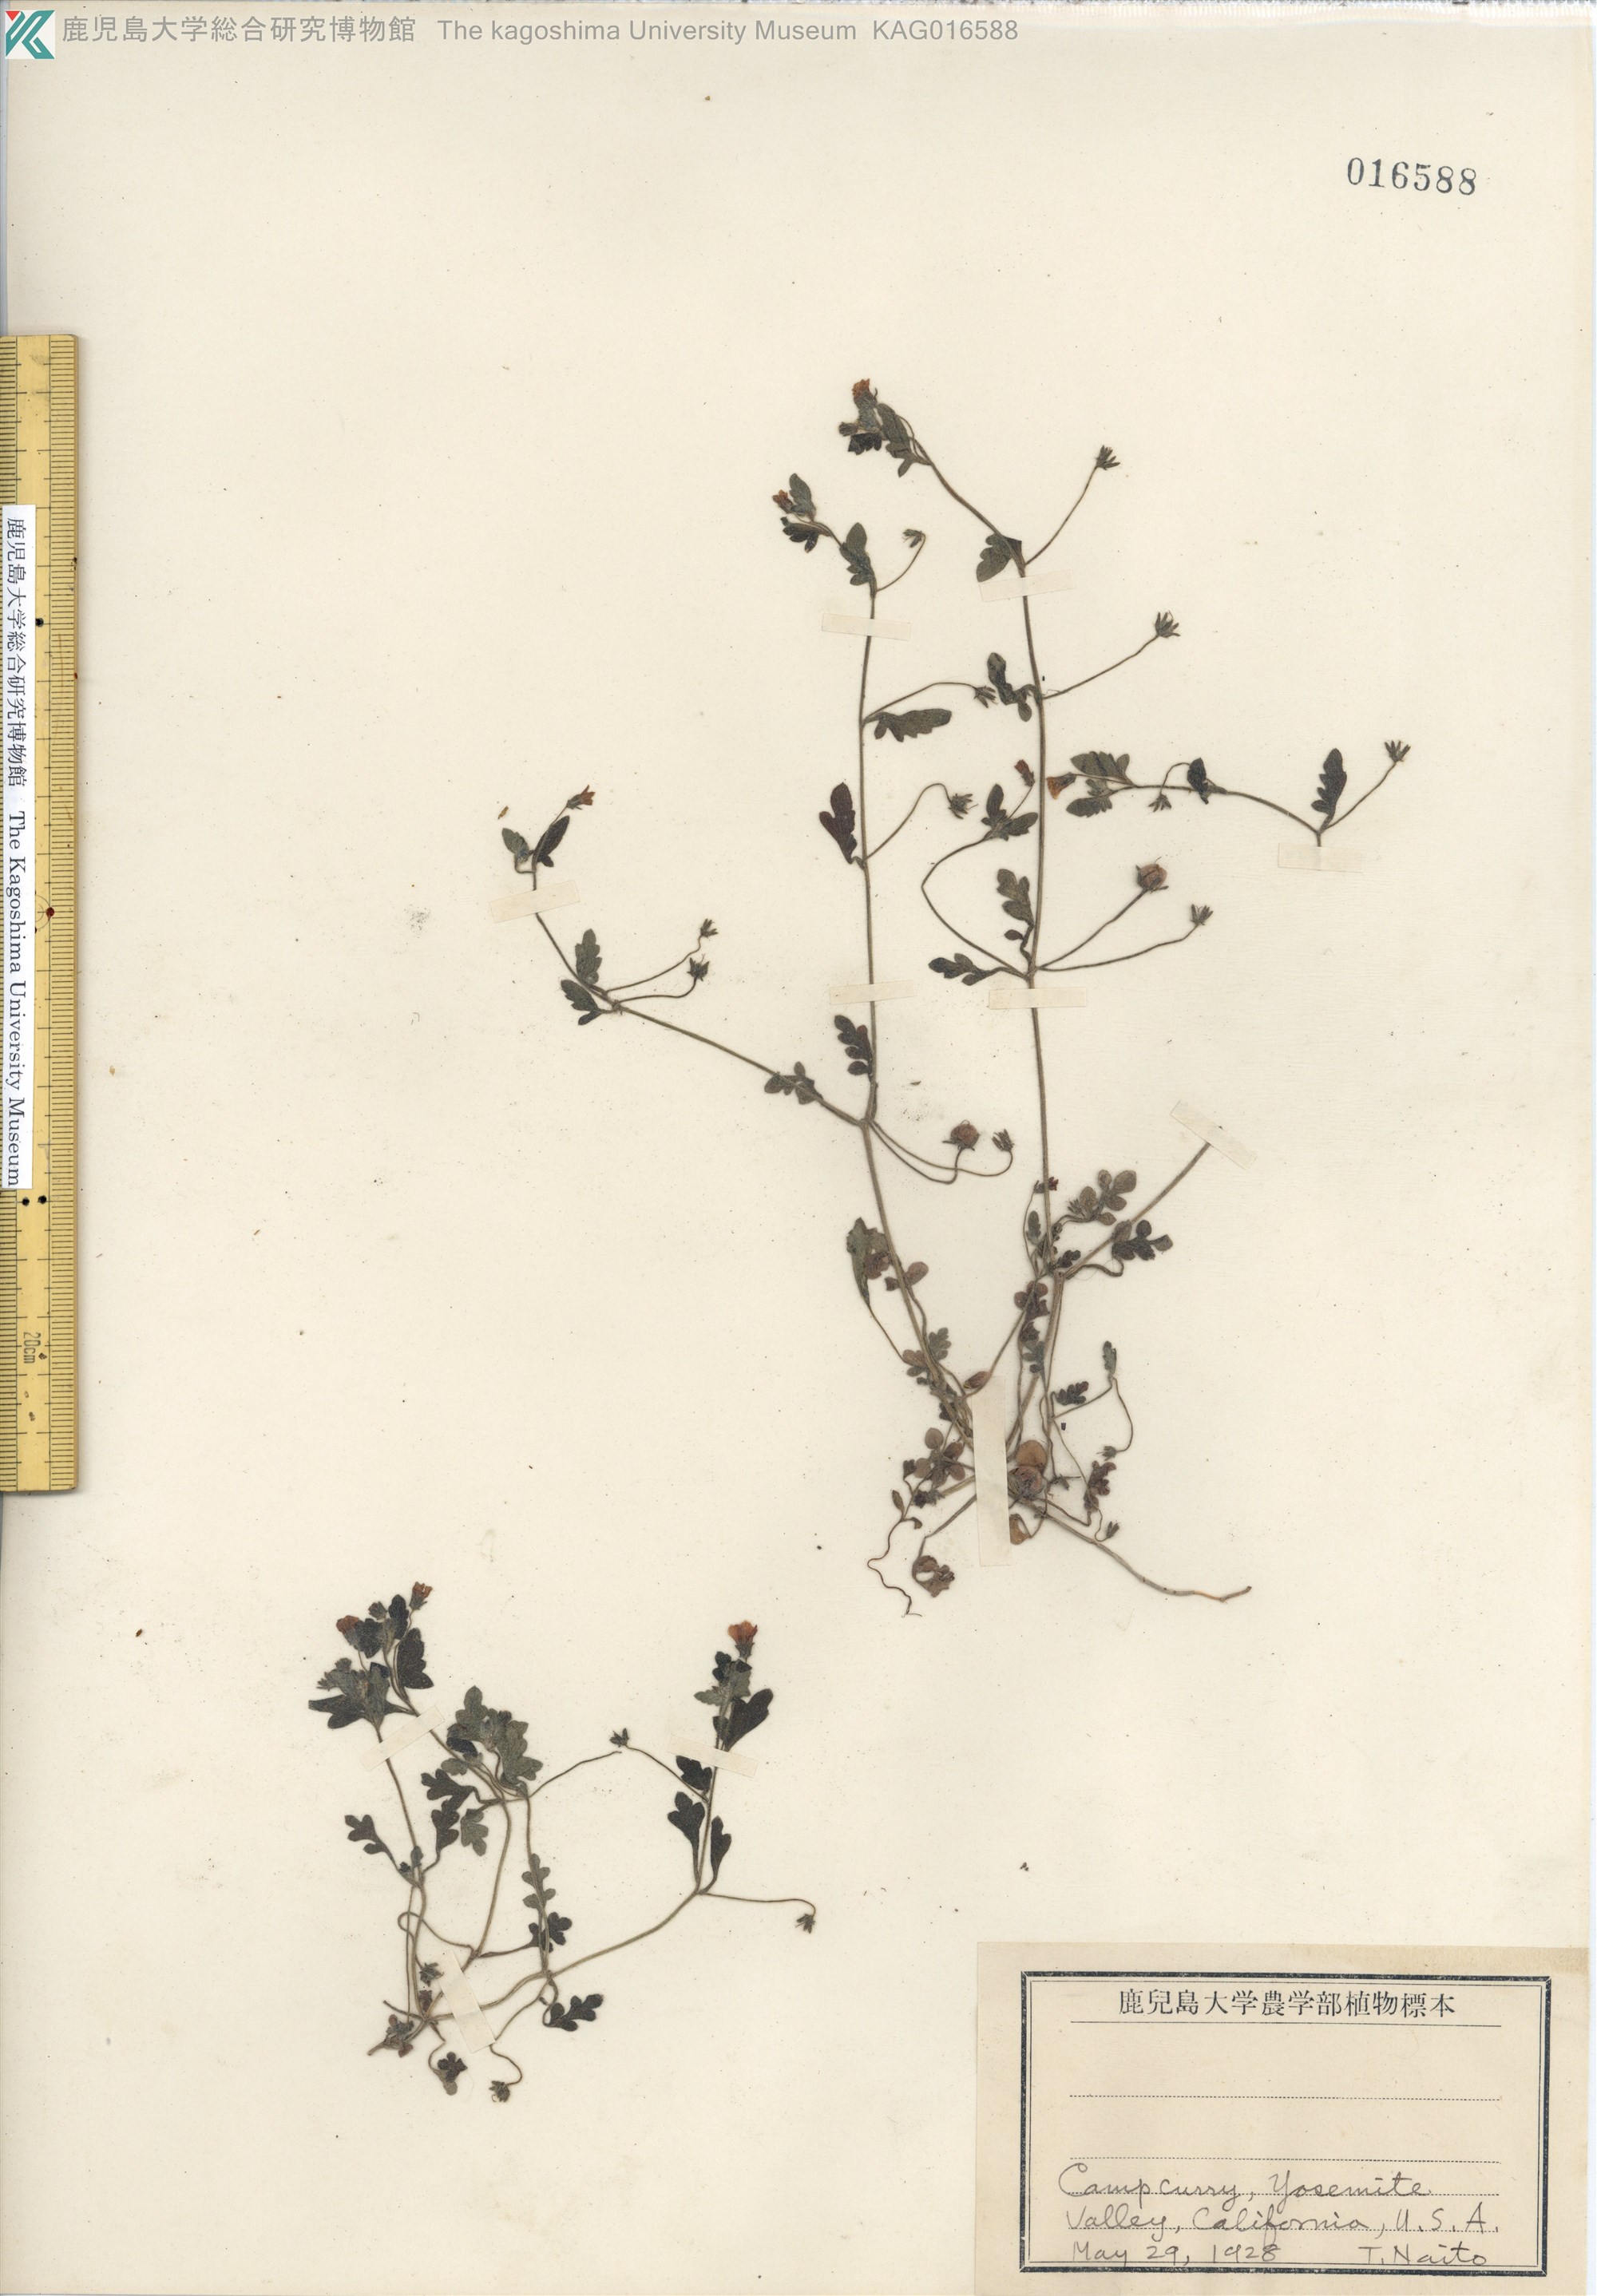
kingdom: Plantae
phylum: Tracheophyta
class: Magnoliopsida
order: Boraginales
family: Hydrophyllaceae
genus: Nemophila
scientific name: Nemophila heterophylla
